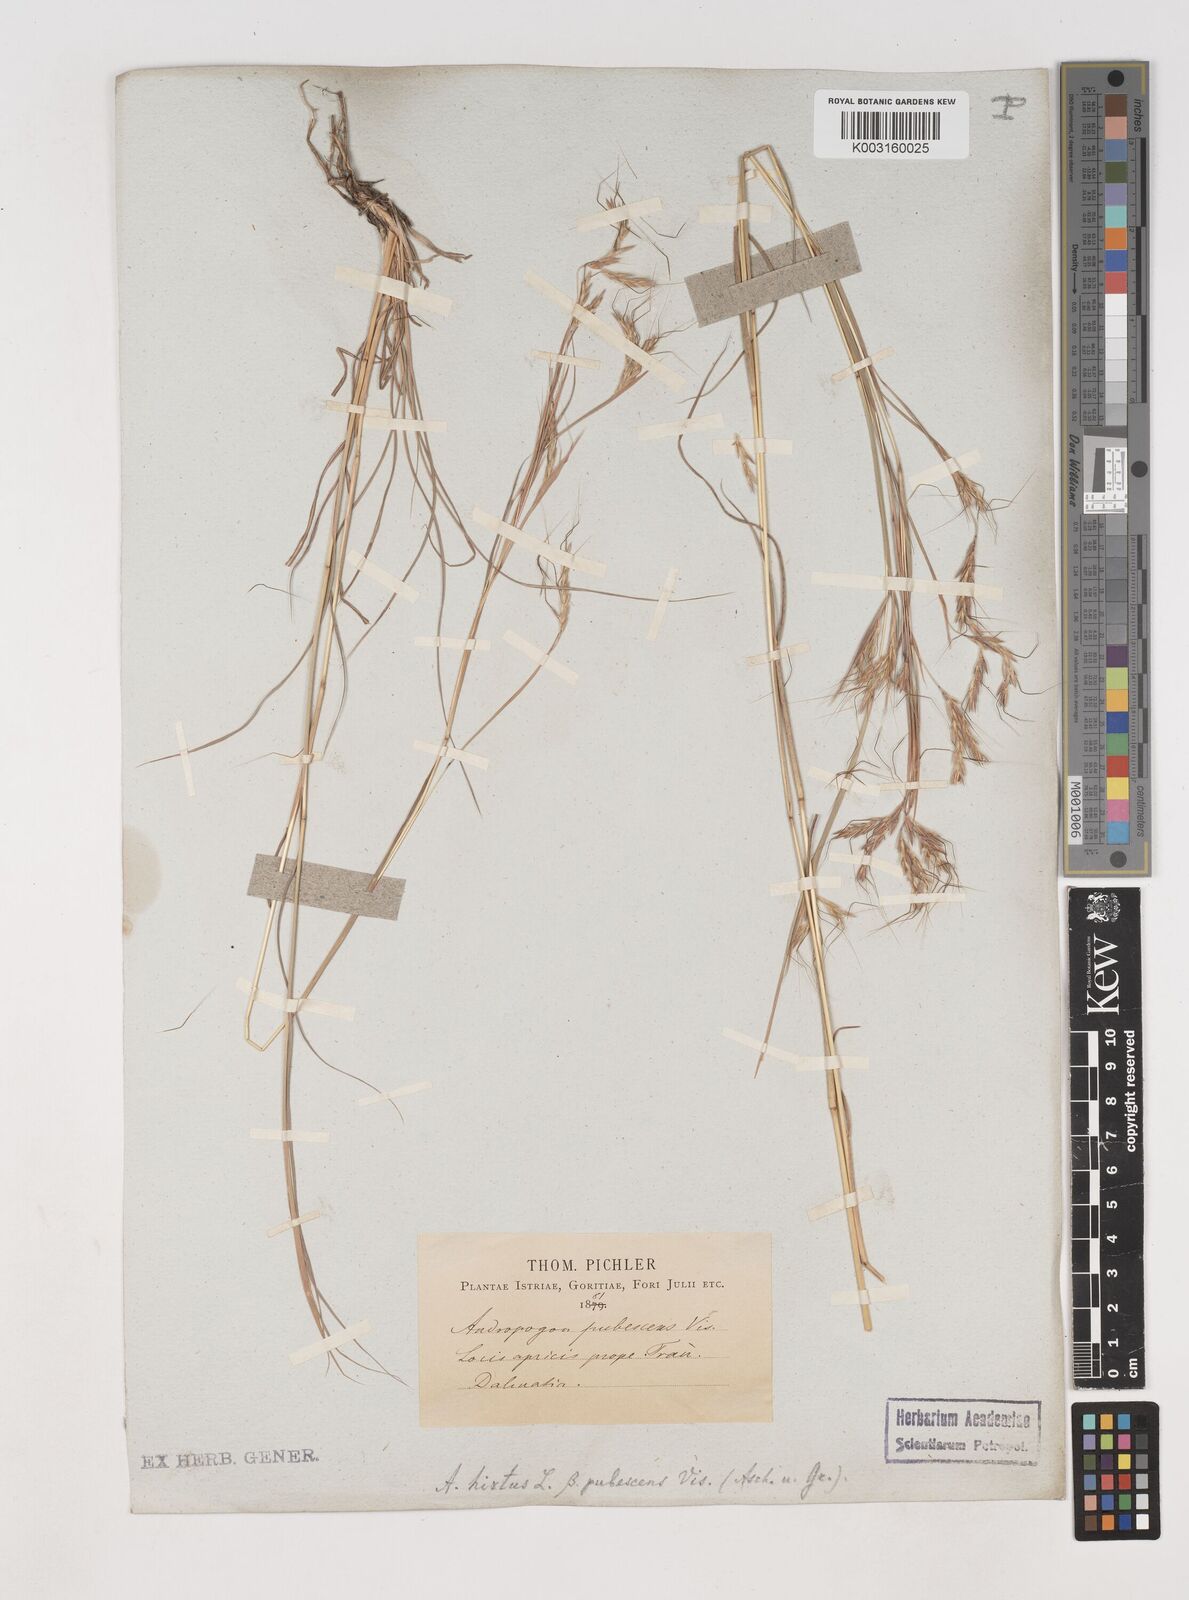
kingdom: Plantae
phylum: Tracheophyta
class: Liliopsida
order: Poales
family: Poaceae
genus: Hyparrhenia
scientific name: Hyparrhenia hirta
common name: Thatching grass
